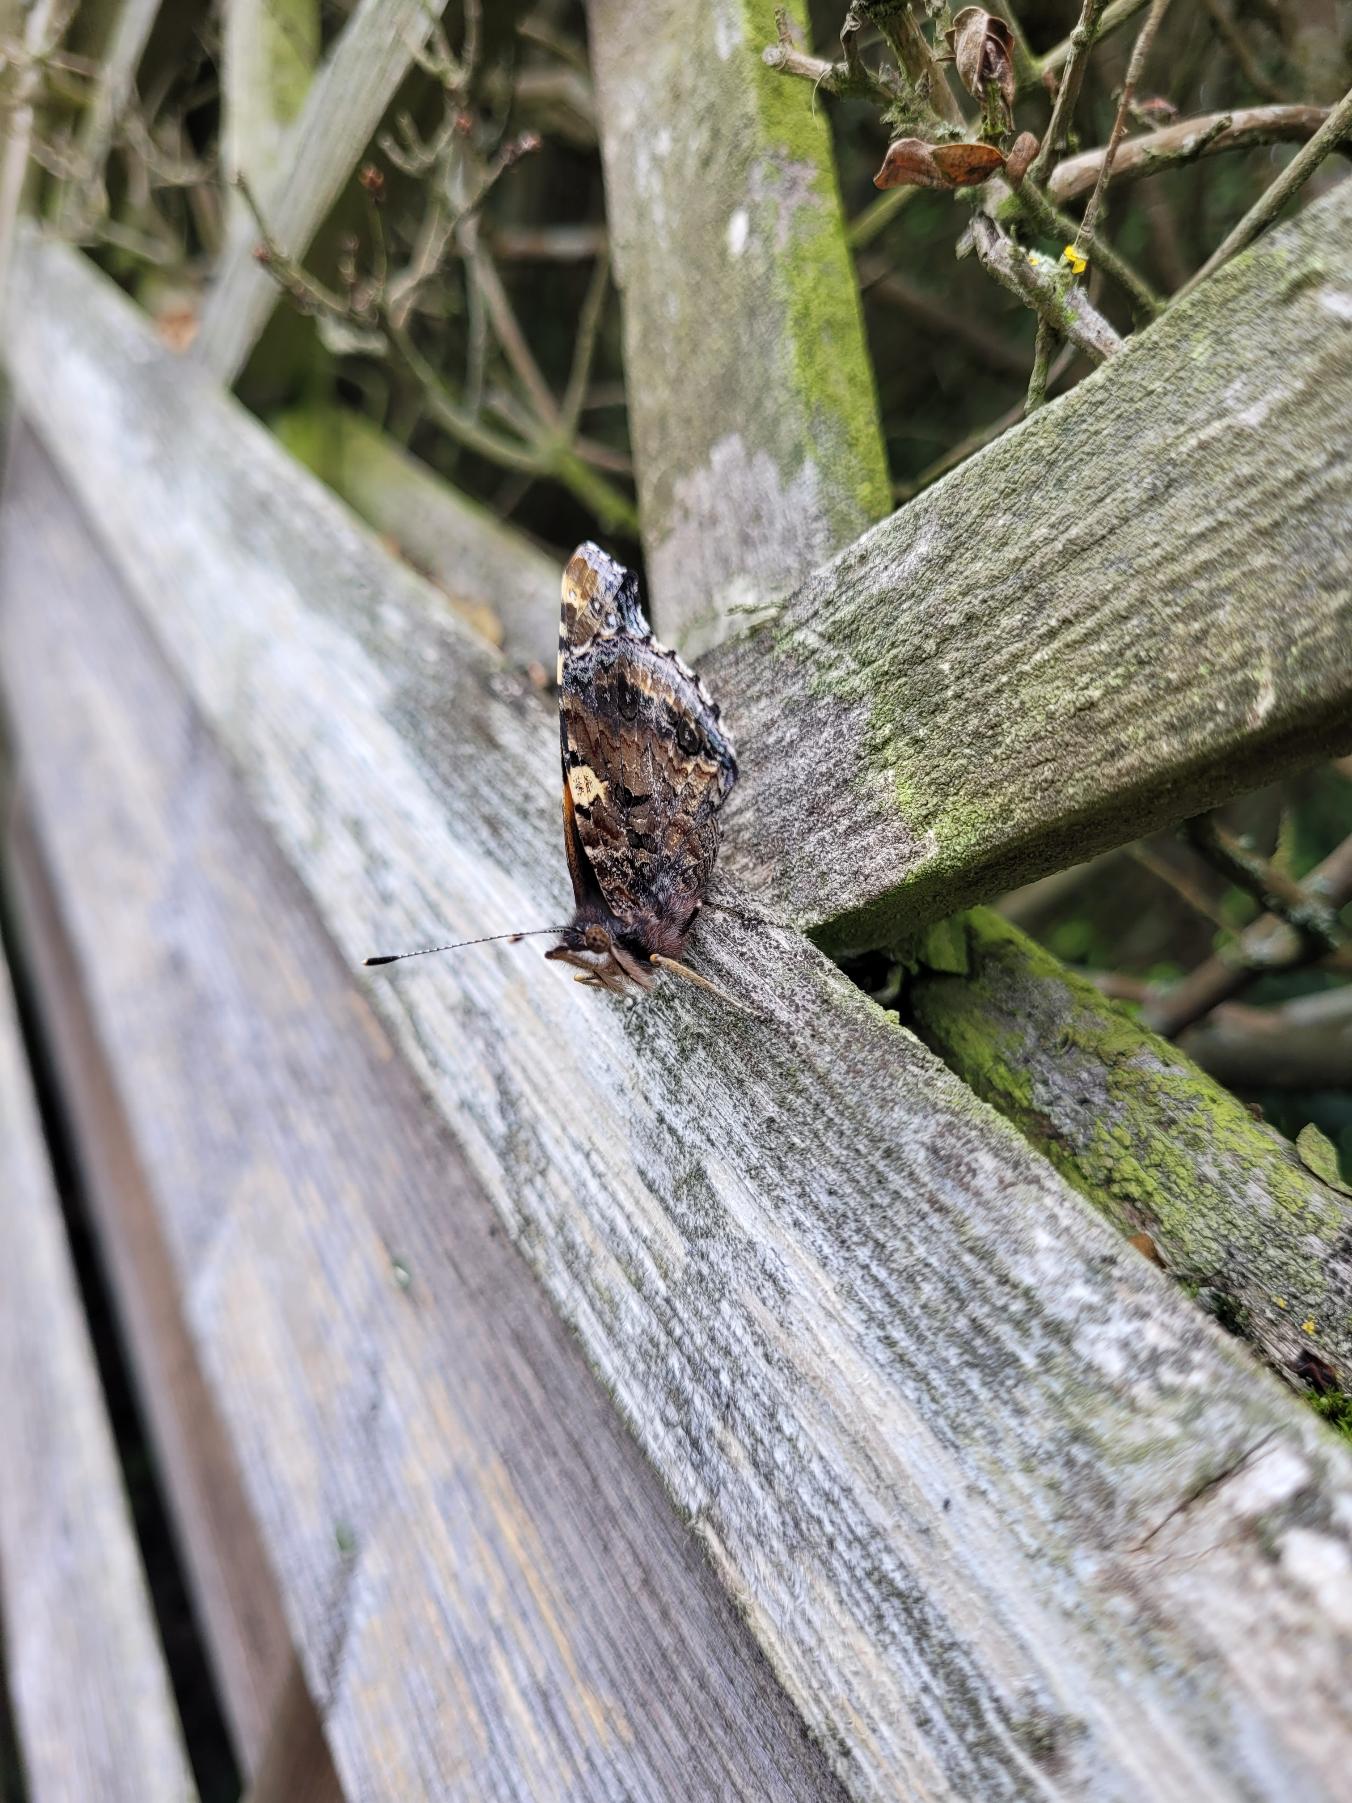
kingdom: Animalia
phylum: Arthropoda
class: Insecta
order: Lepidoptera
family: Nymphalidae
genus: Vanessa
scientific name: Vanessa atalanta
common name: Admiral
